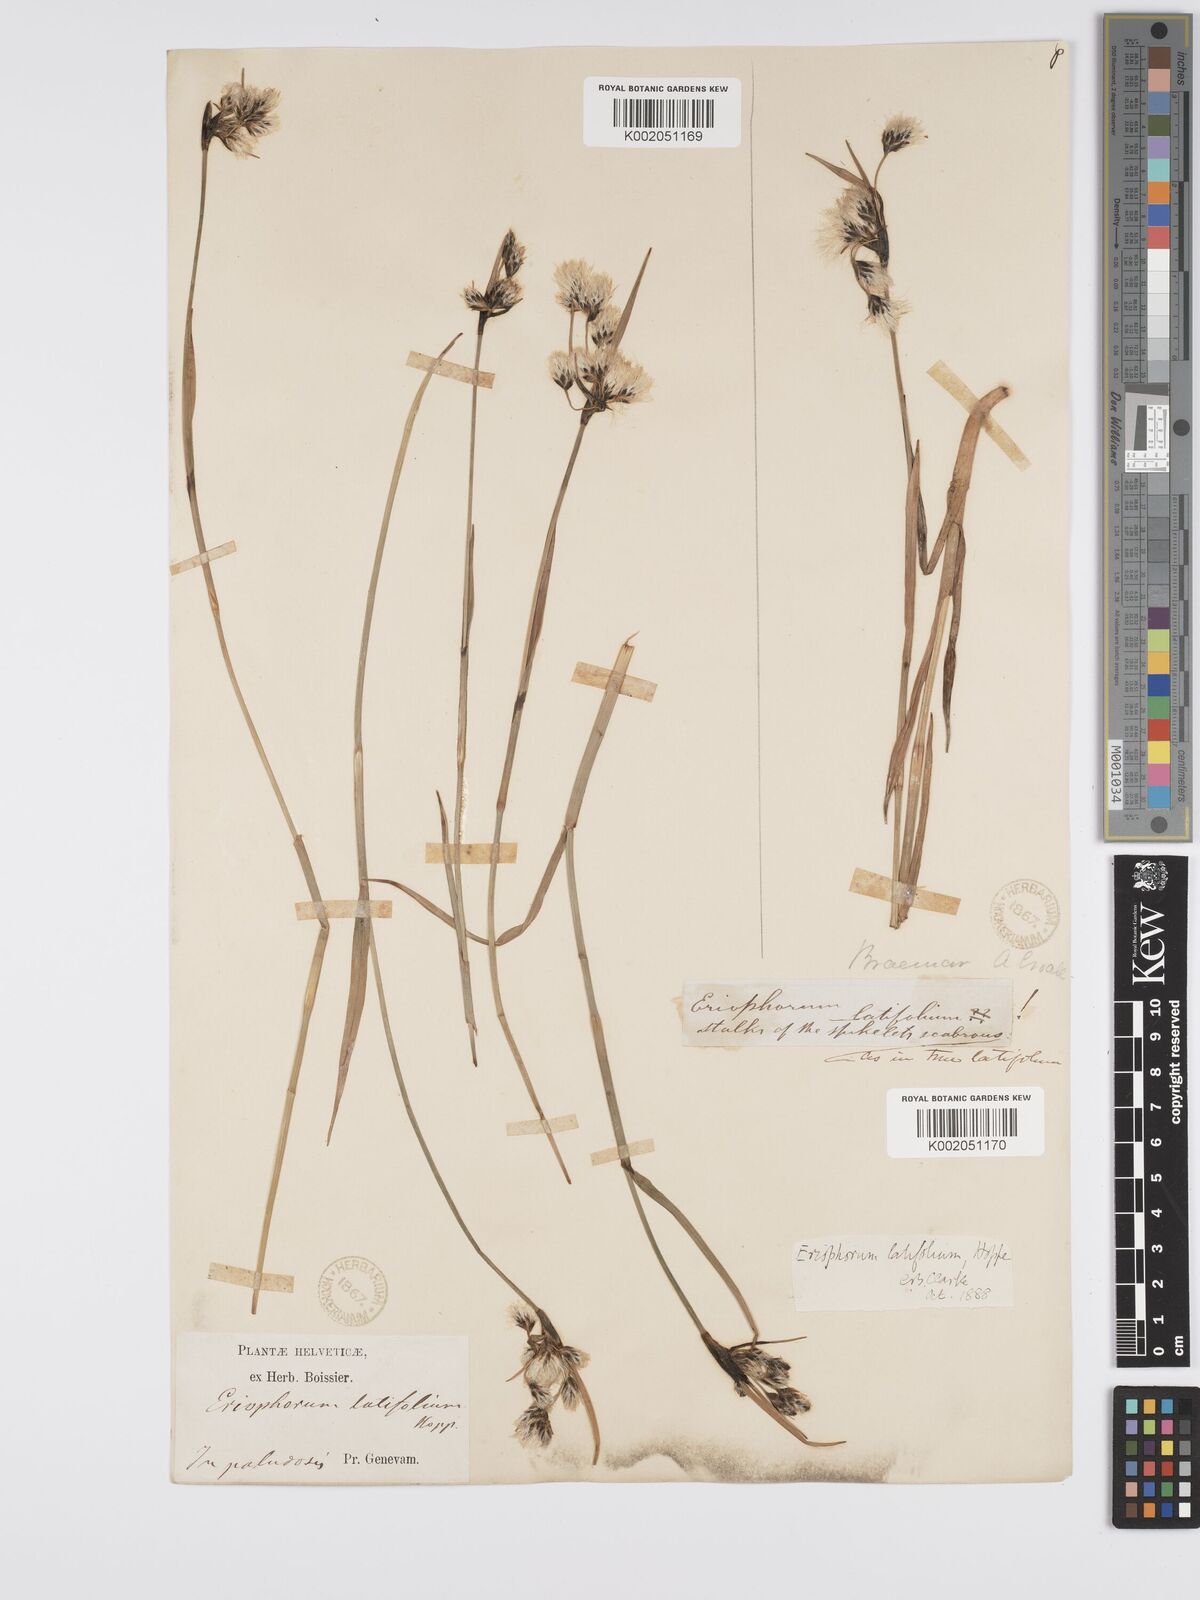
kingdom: Plantae
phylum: Tracheophyta
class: Liliopsida
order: Poales
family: Cyperaceae
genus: Eriophorum
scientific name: Eriophorum latifolium
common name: Broad-leaved cottongrass
